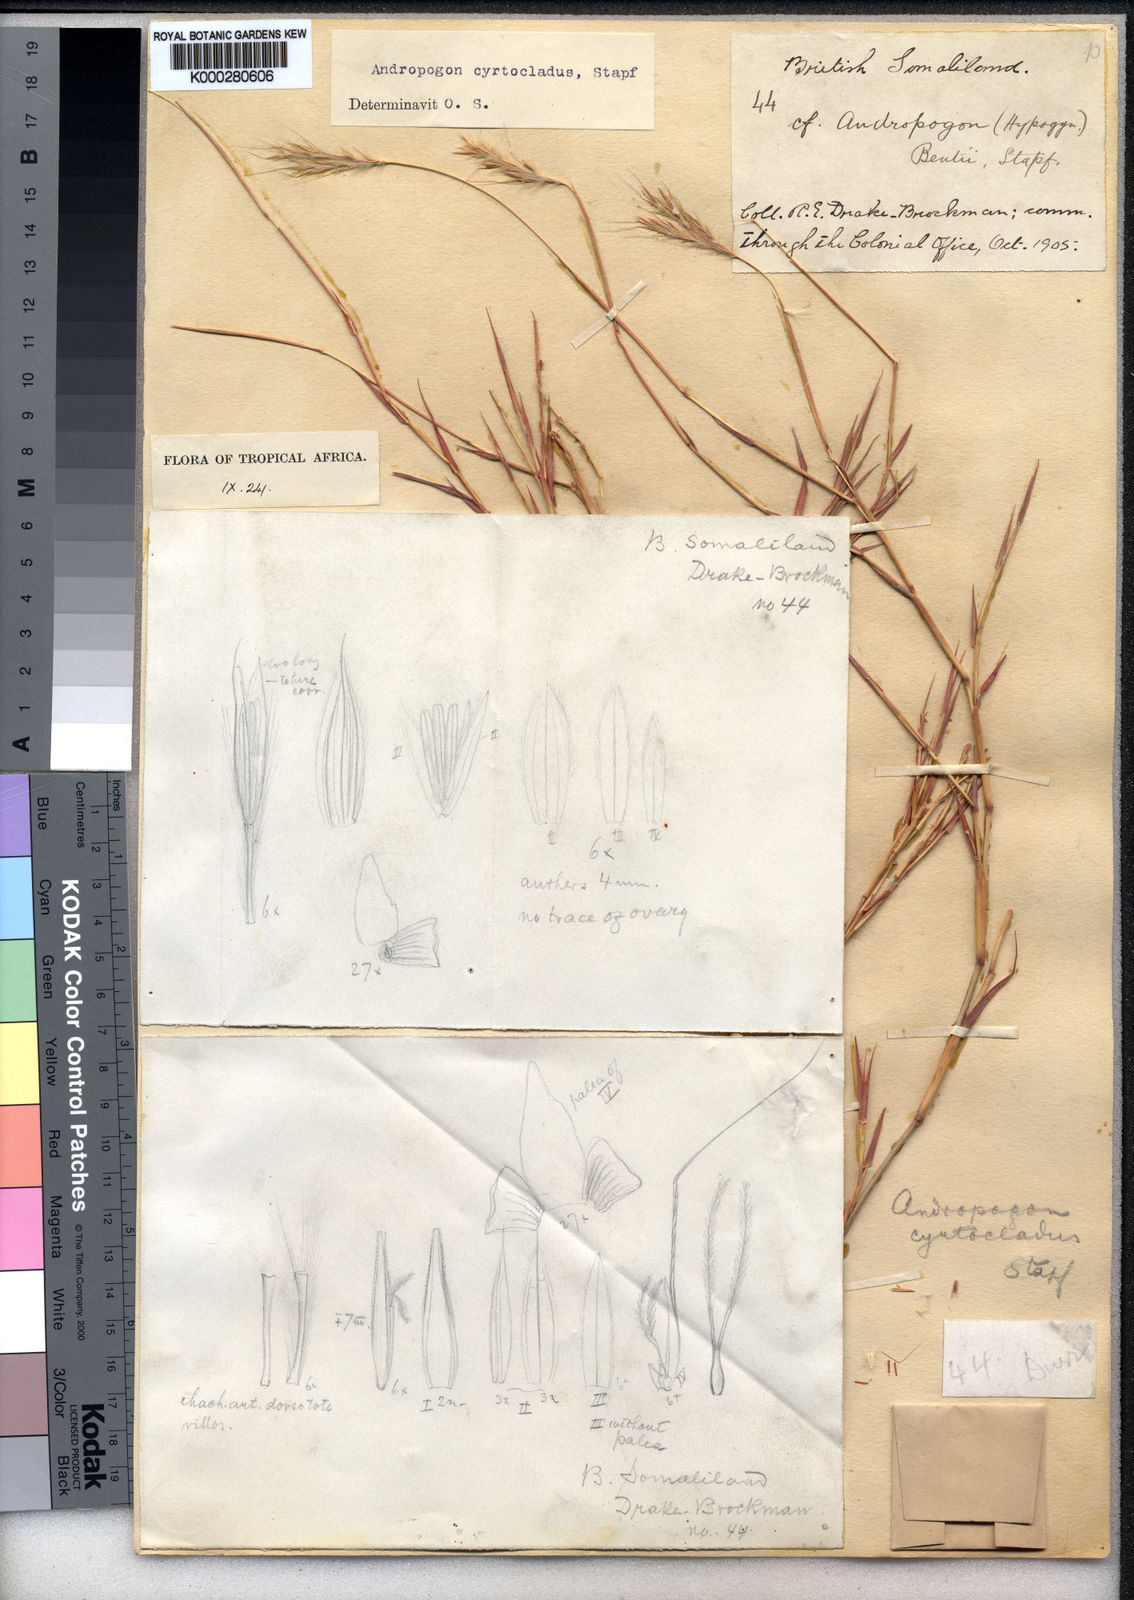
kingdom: Plantae
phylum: Tracheophyta
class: Liliopsida
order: Poales
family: Poaceae
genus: Andropogon
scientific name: Andropogon
